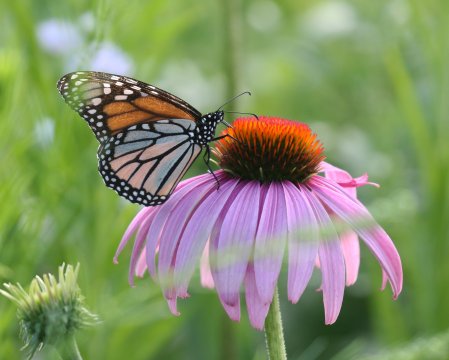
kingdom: Animalia
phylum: Arthropoda
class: Insecta
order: Lepidoptera
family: Nymphalidae
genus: Danaus
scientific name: Danaus plexippus
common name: Monarch
